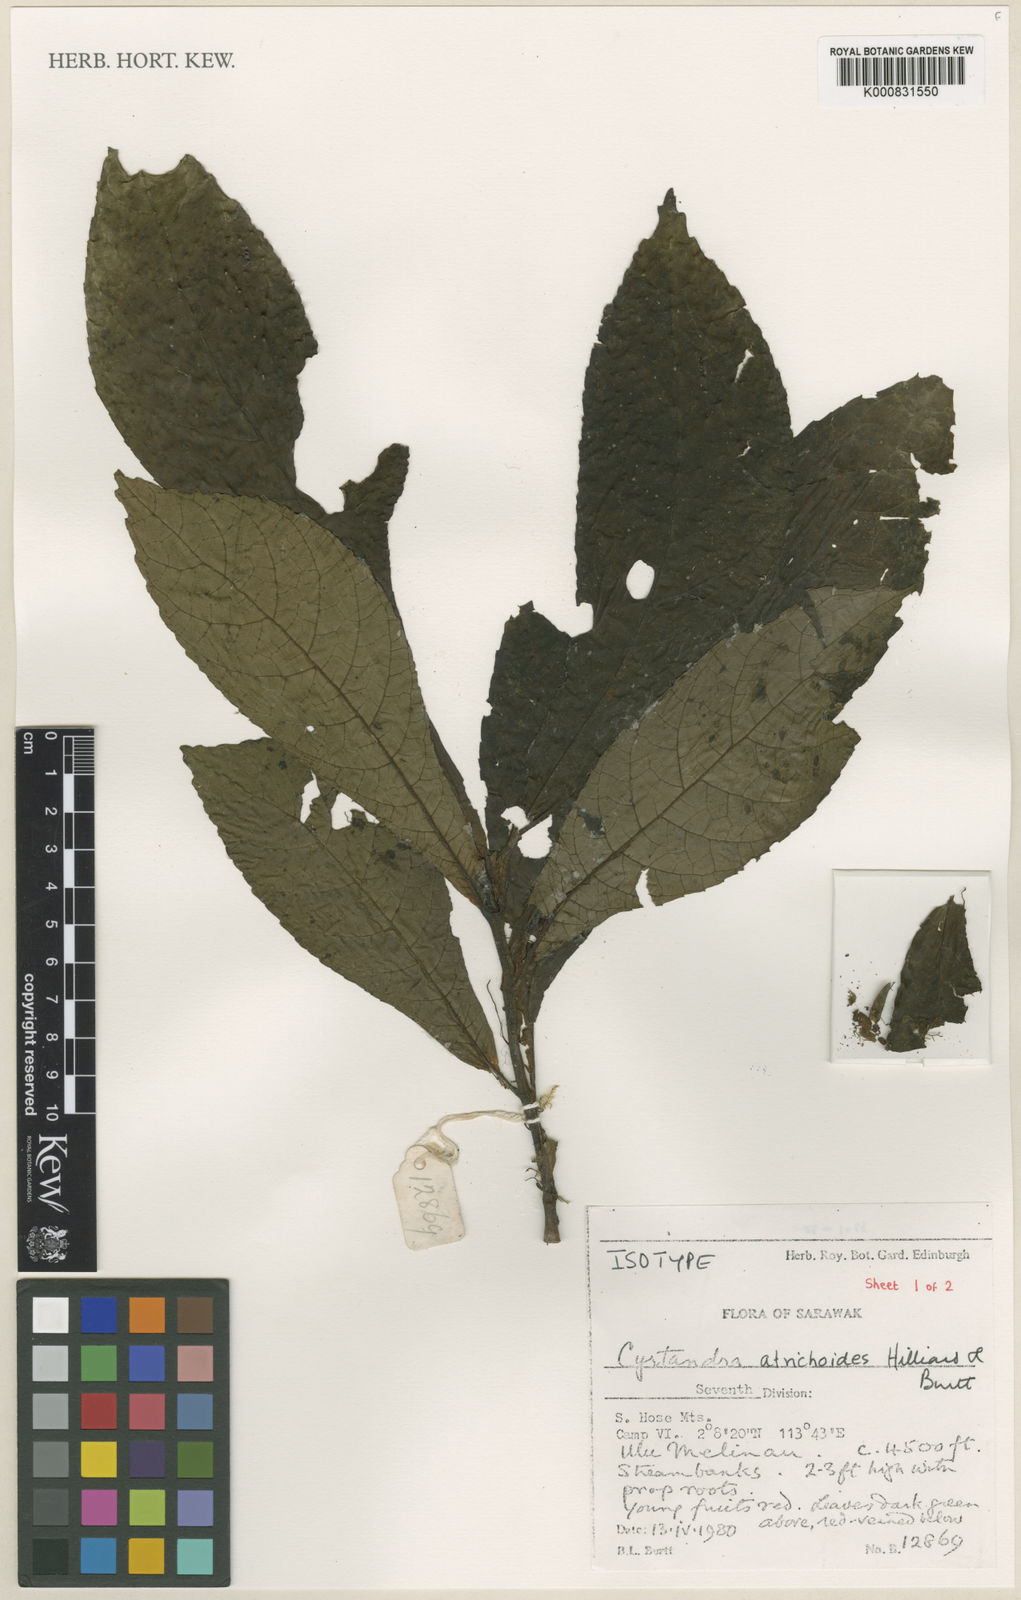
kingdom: Plantae
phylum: Tracheophyta
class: Magnoliopsida
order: Lamiales
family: Gesneriaceae
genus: Cyrtandra
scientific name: Cyrtandra atrichoides
